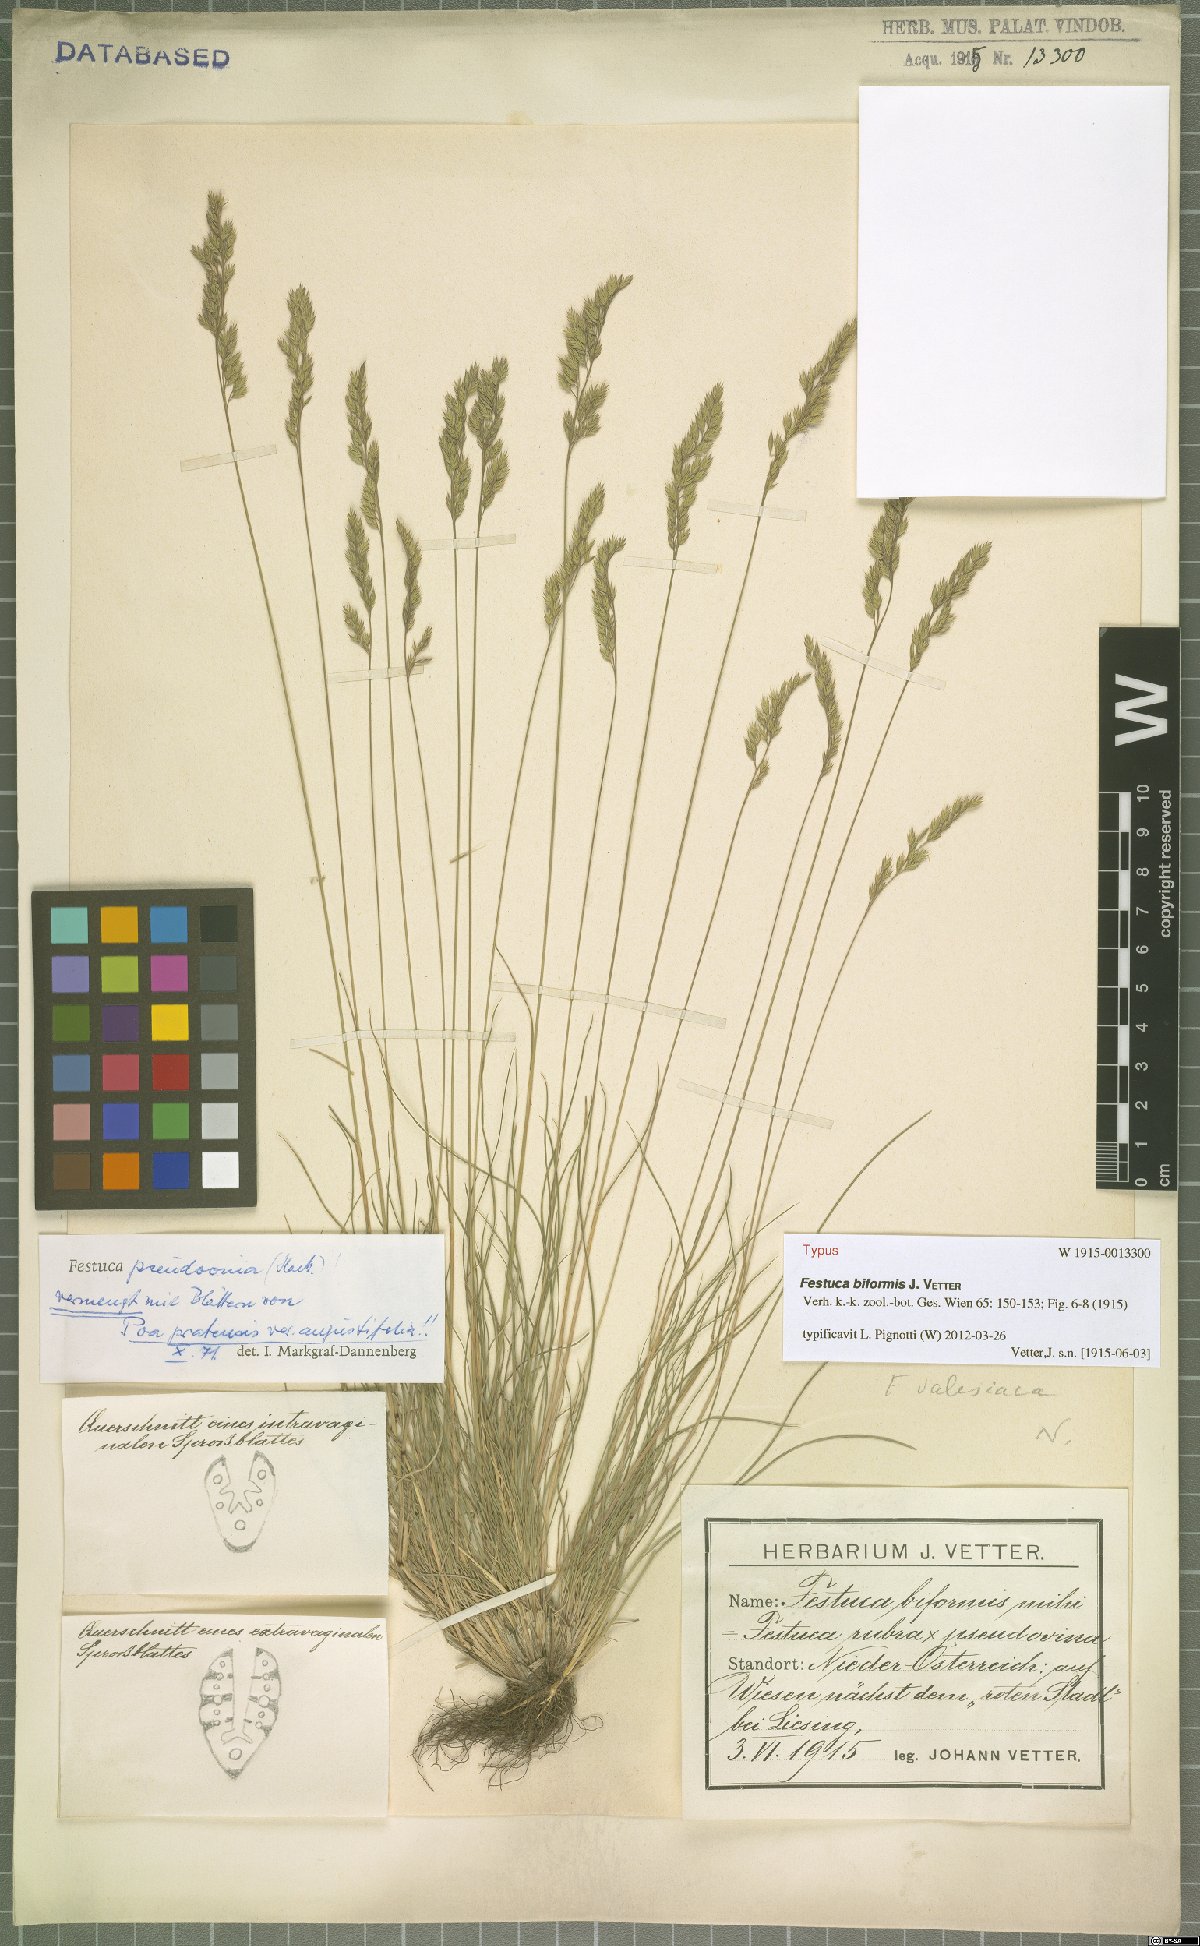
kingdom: Plantae
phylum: Tracheophyta
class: Liliopsida
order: Poales
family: Poaceae
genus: Festuca
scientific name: Festuca pulchra
